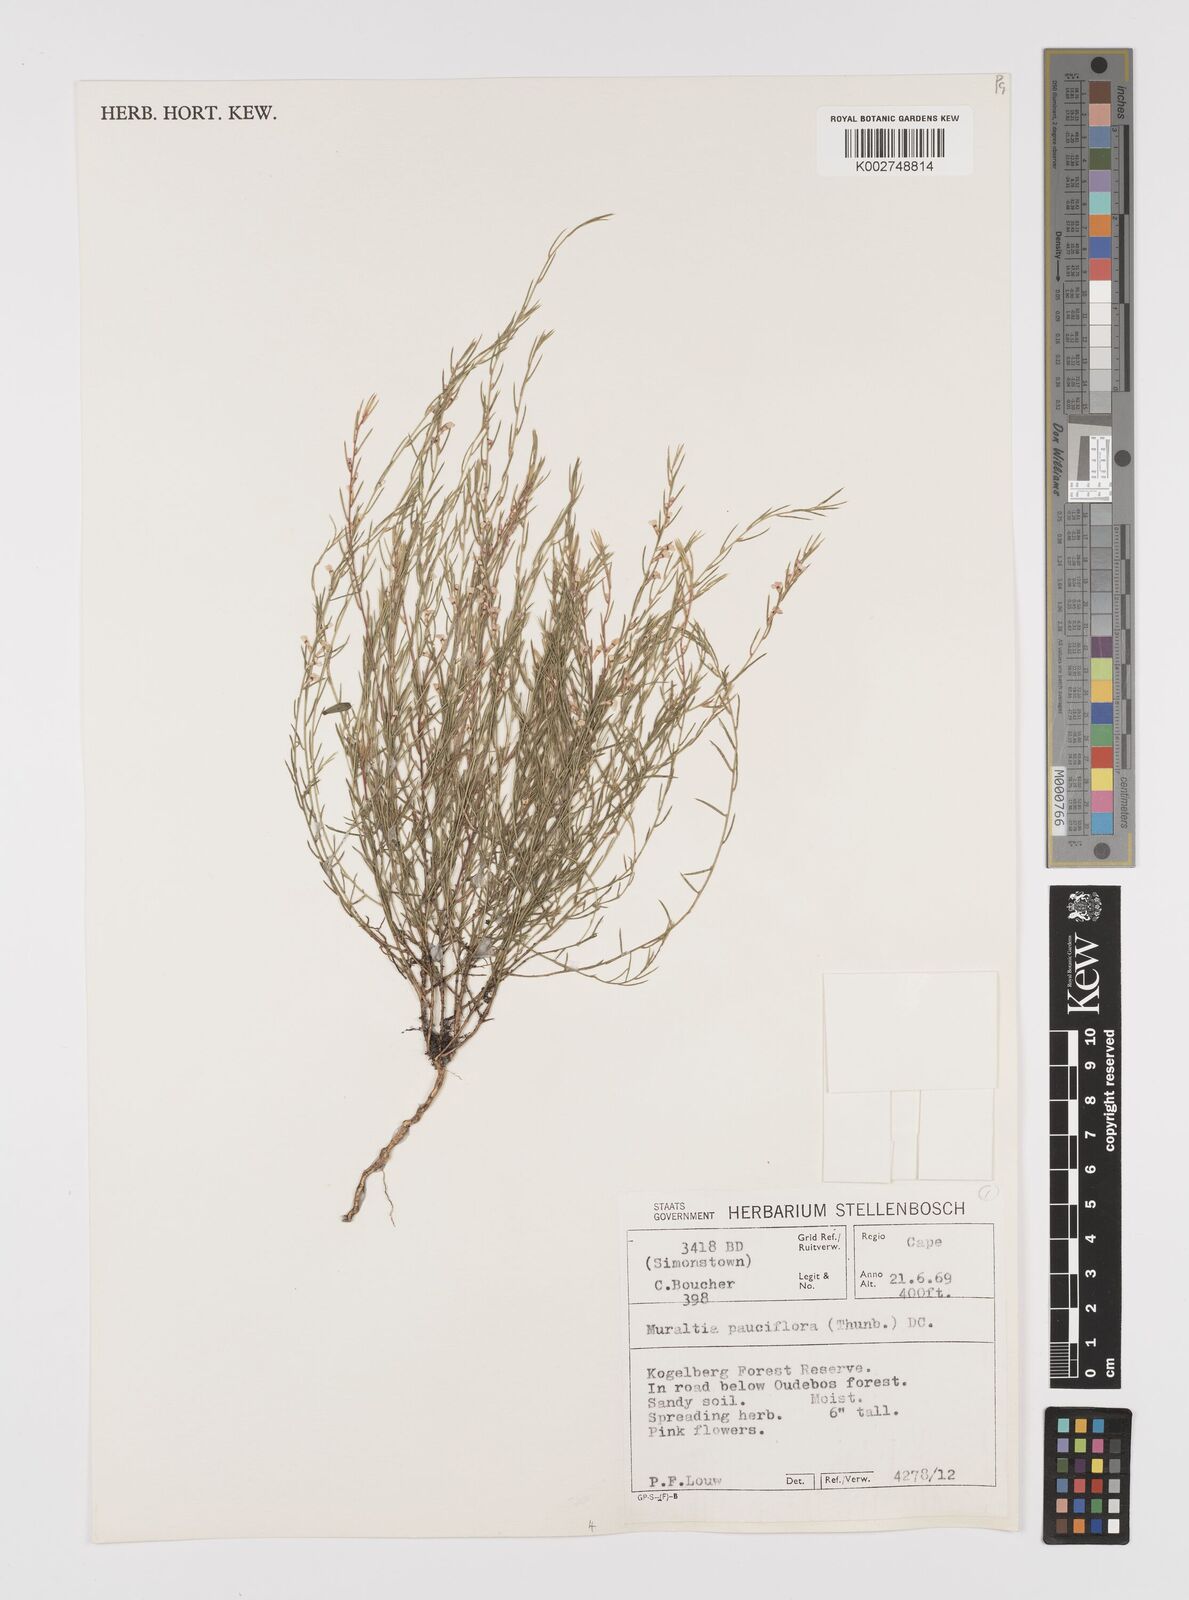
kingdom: Plantae
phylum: Tracheophyta
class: Magnoliopsida
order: Fabales
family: Polygalaceae
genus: Muraltia
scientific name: Muraltia pauciflora
